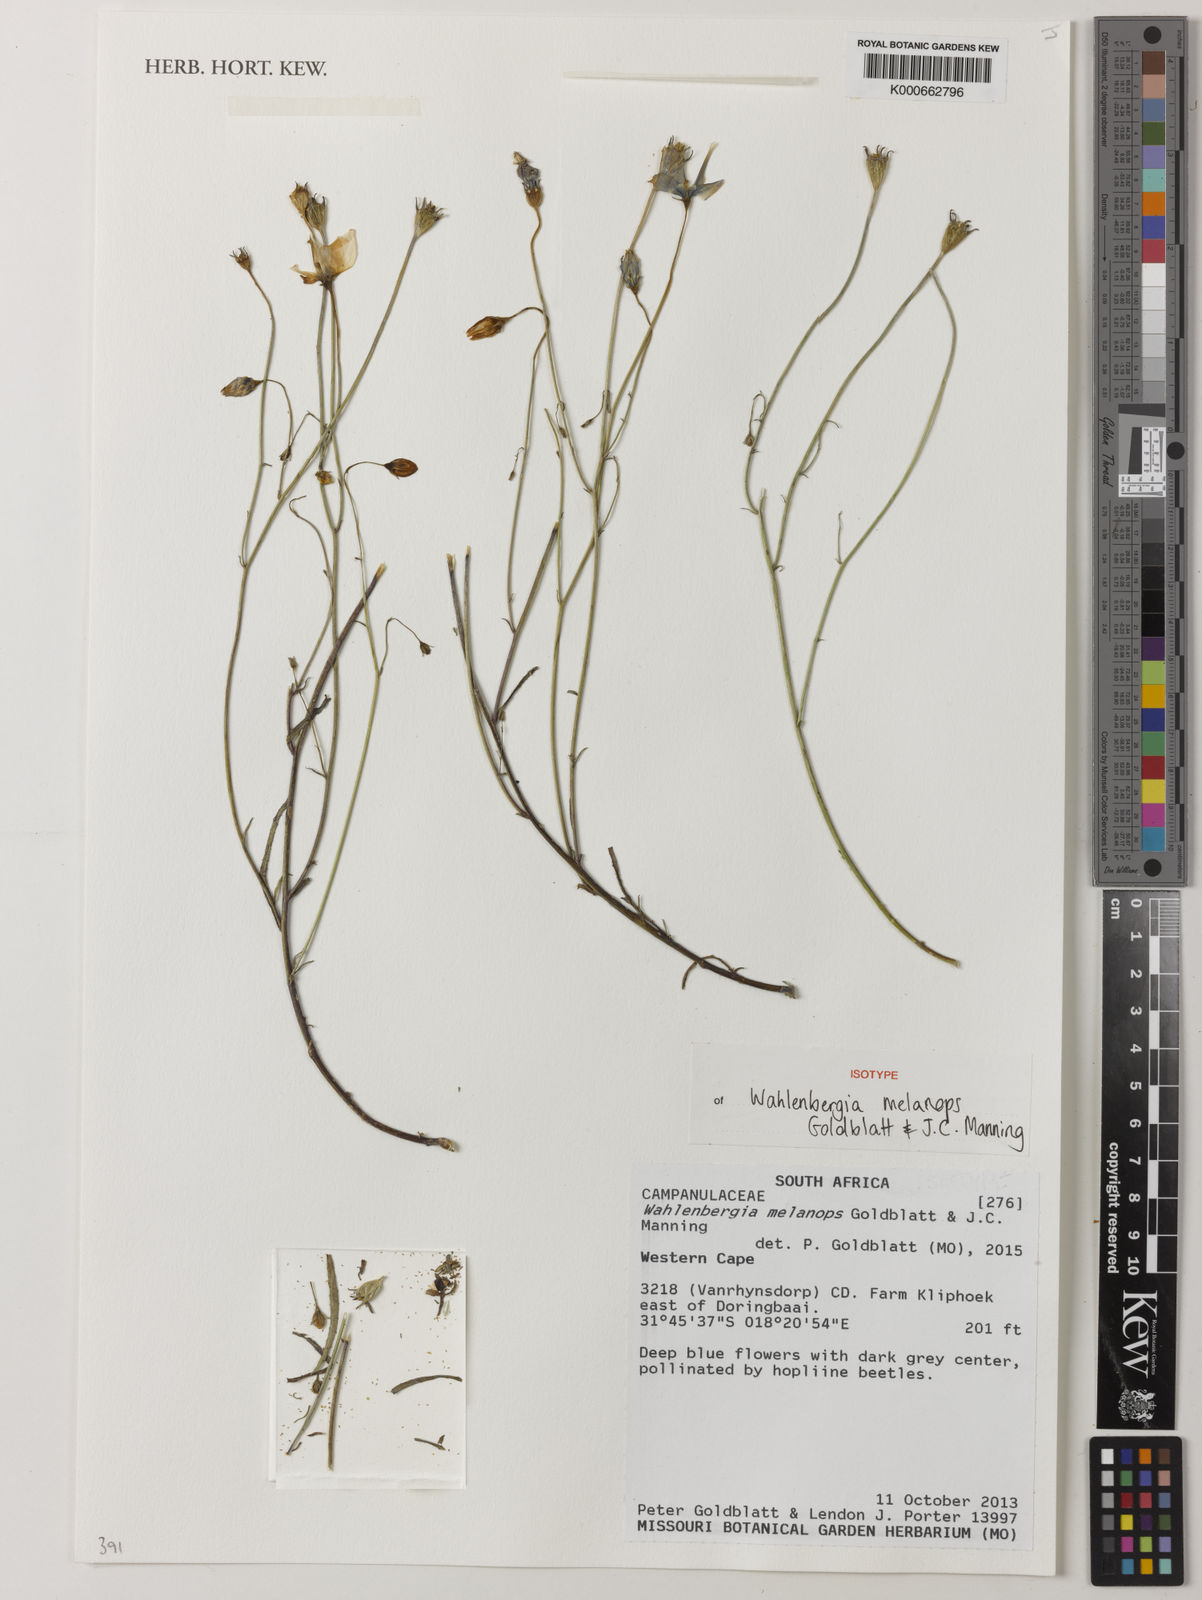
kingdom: Plantae
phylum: Tracheophyta
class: Magnoliopsida
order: Asterales
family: Campanulaceae
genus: Wahlenbergia
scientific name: Wahlenbergia melanops
